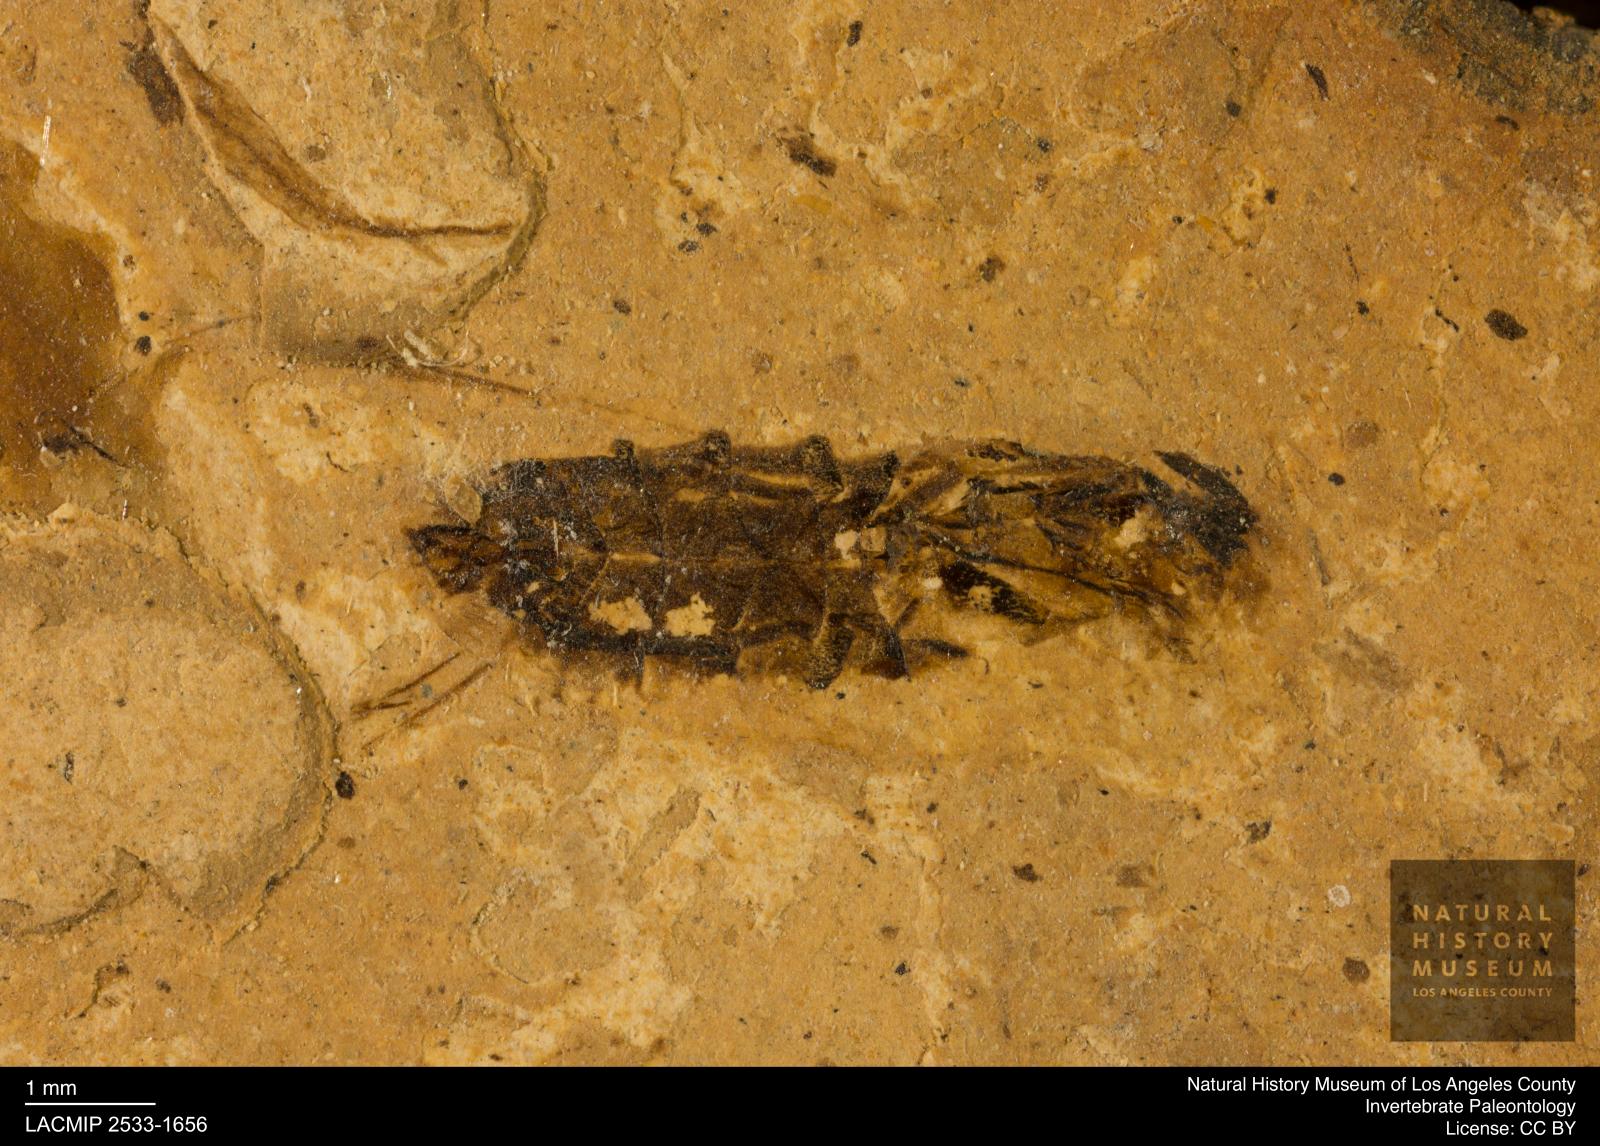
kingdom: Animalia
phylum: Arthropoda
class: Insecta
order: Hemiptera
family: Notonectidae
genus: Notonecta
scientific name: Notonecta
